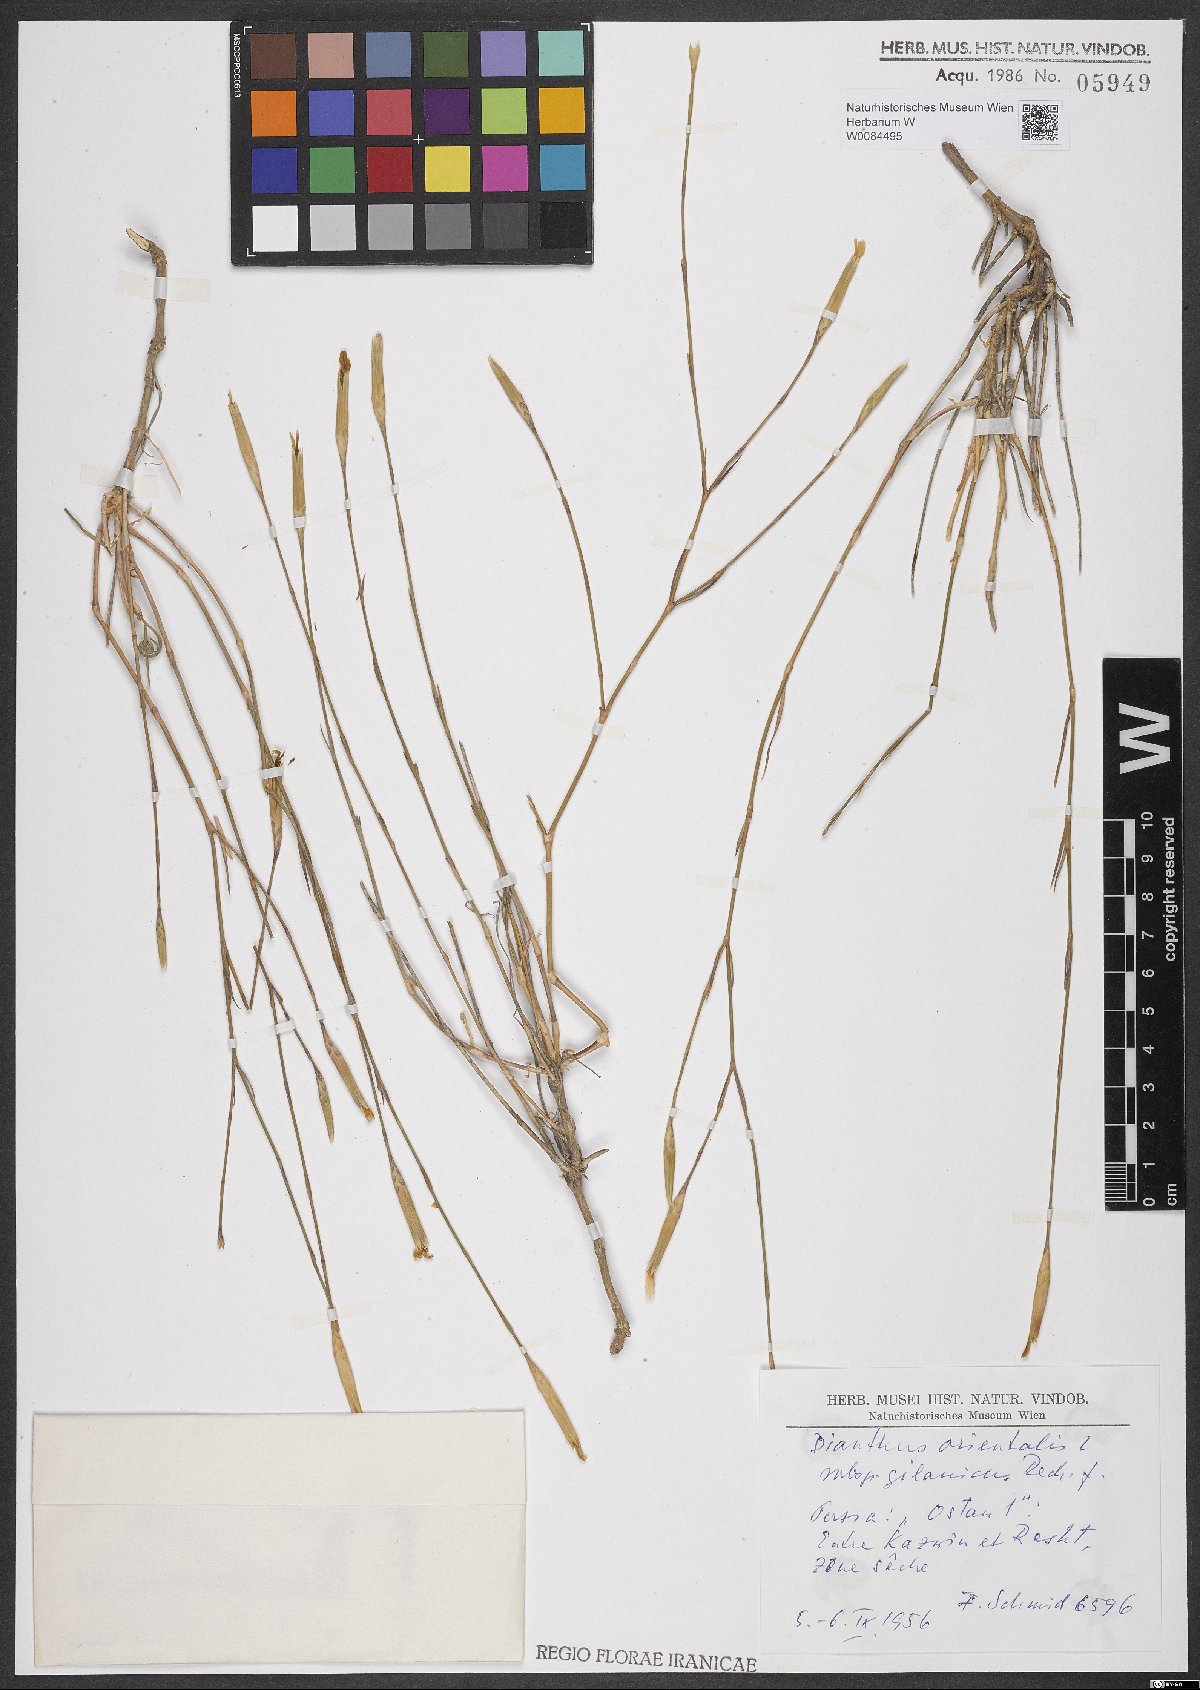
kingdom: Plantae
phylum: Tracheophyta
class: Magnoliopsida
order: Caryophyllales
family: Caryophyllaceae
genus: Dianthus
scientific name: Dianthus orientalis
